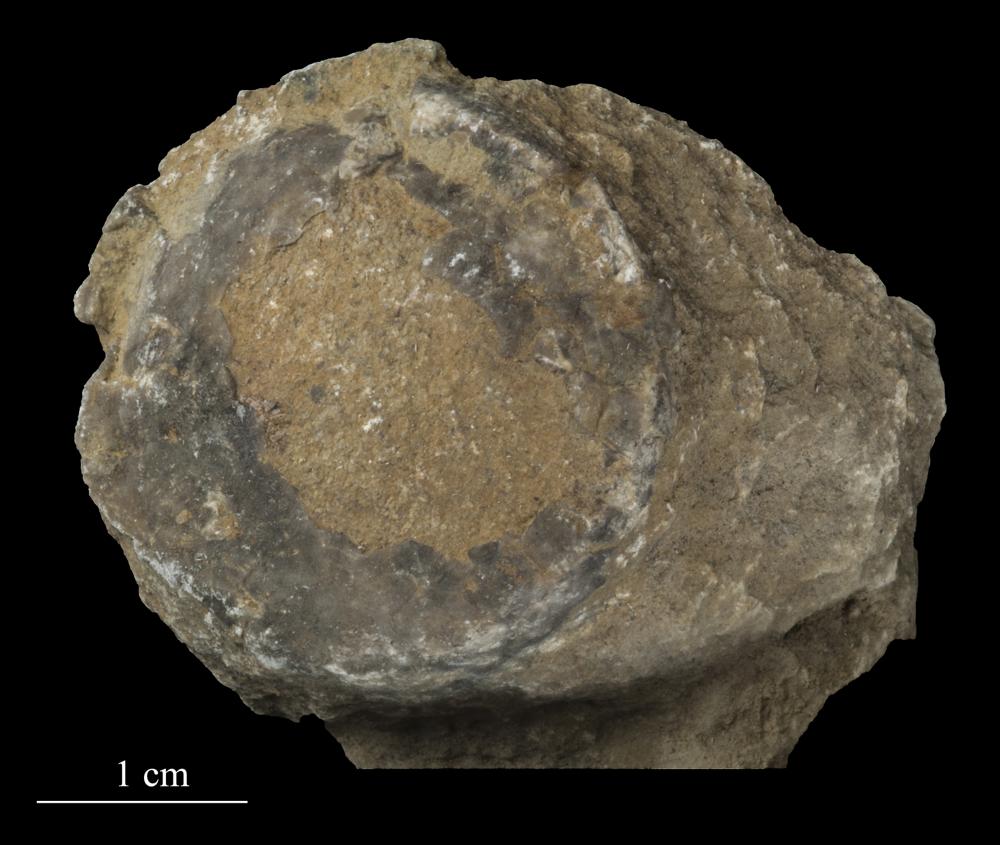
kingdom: Animalia
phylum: Echinodermata
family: Echinosphaeritidae
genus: Echinosphaerites
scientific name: Echinosphaerites Echinus aurantium
